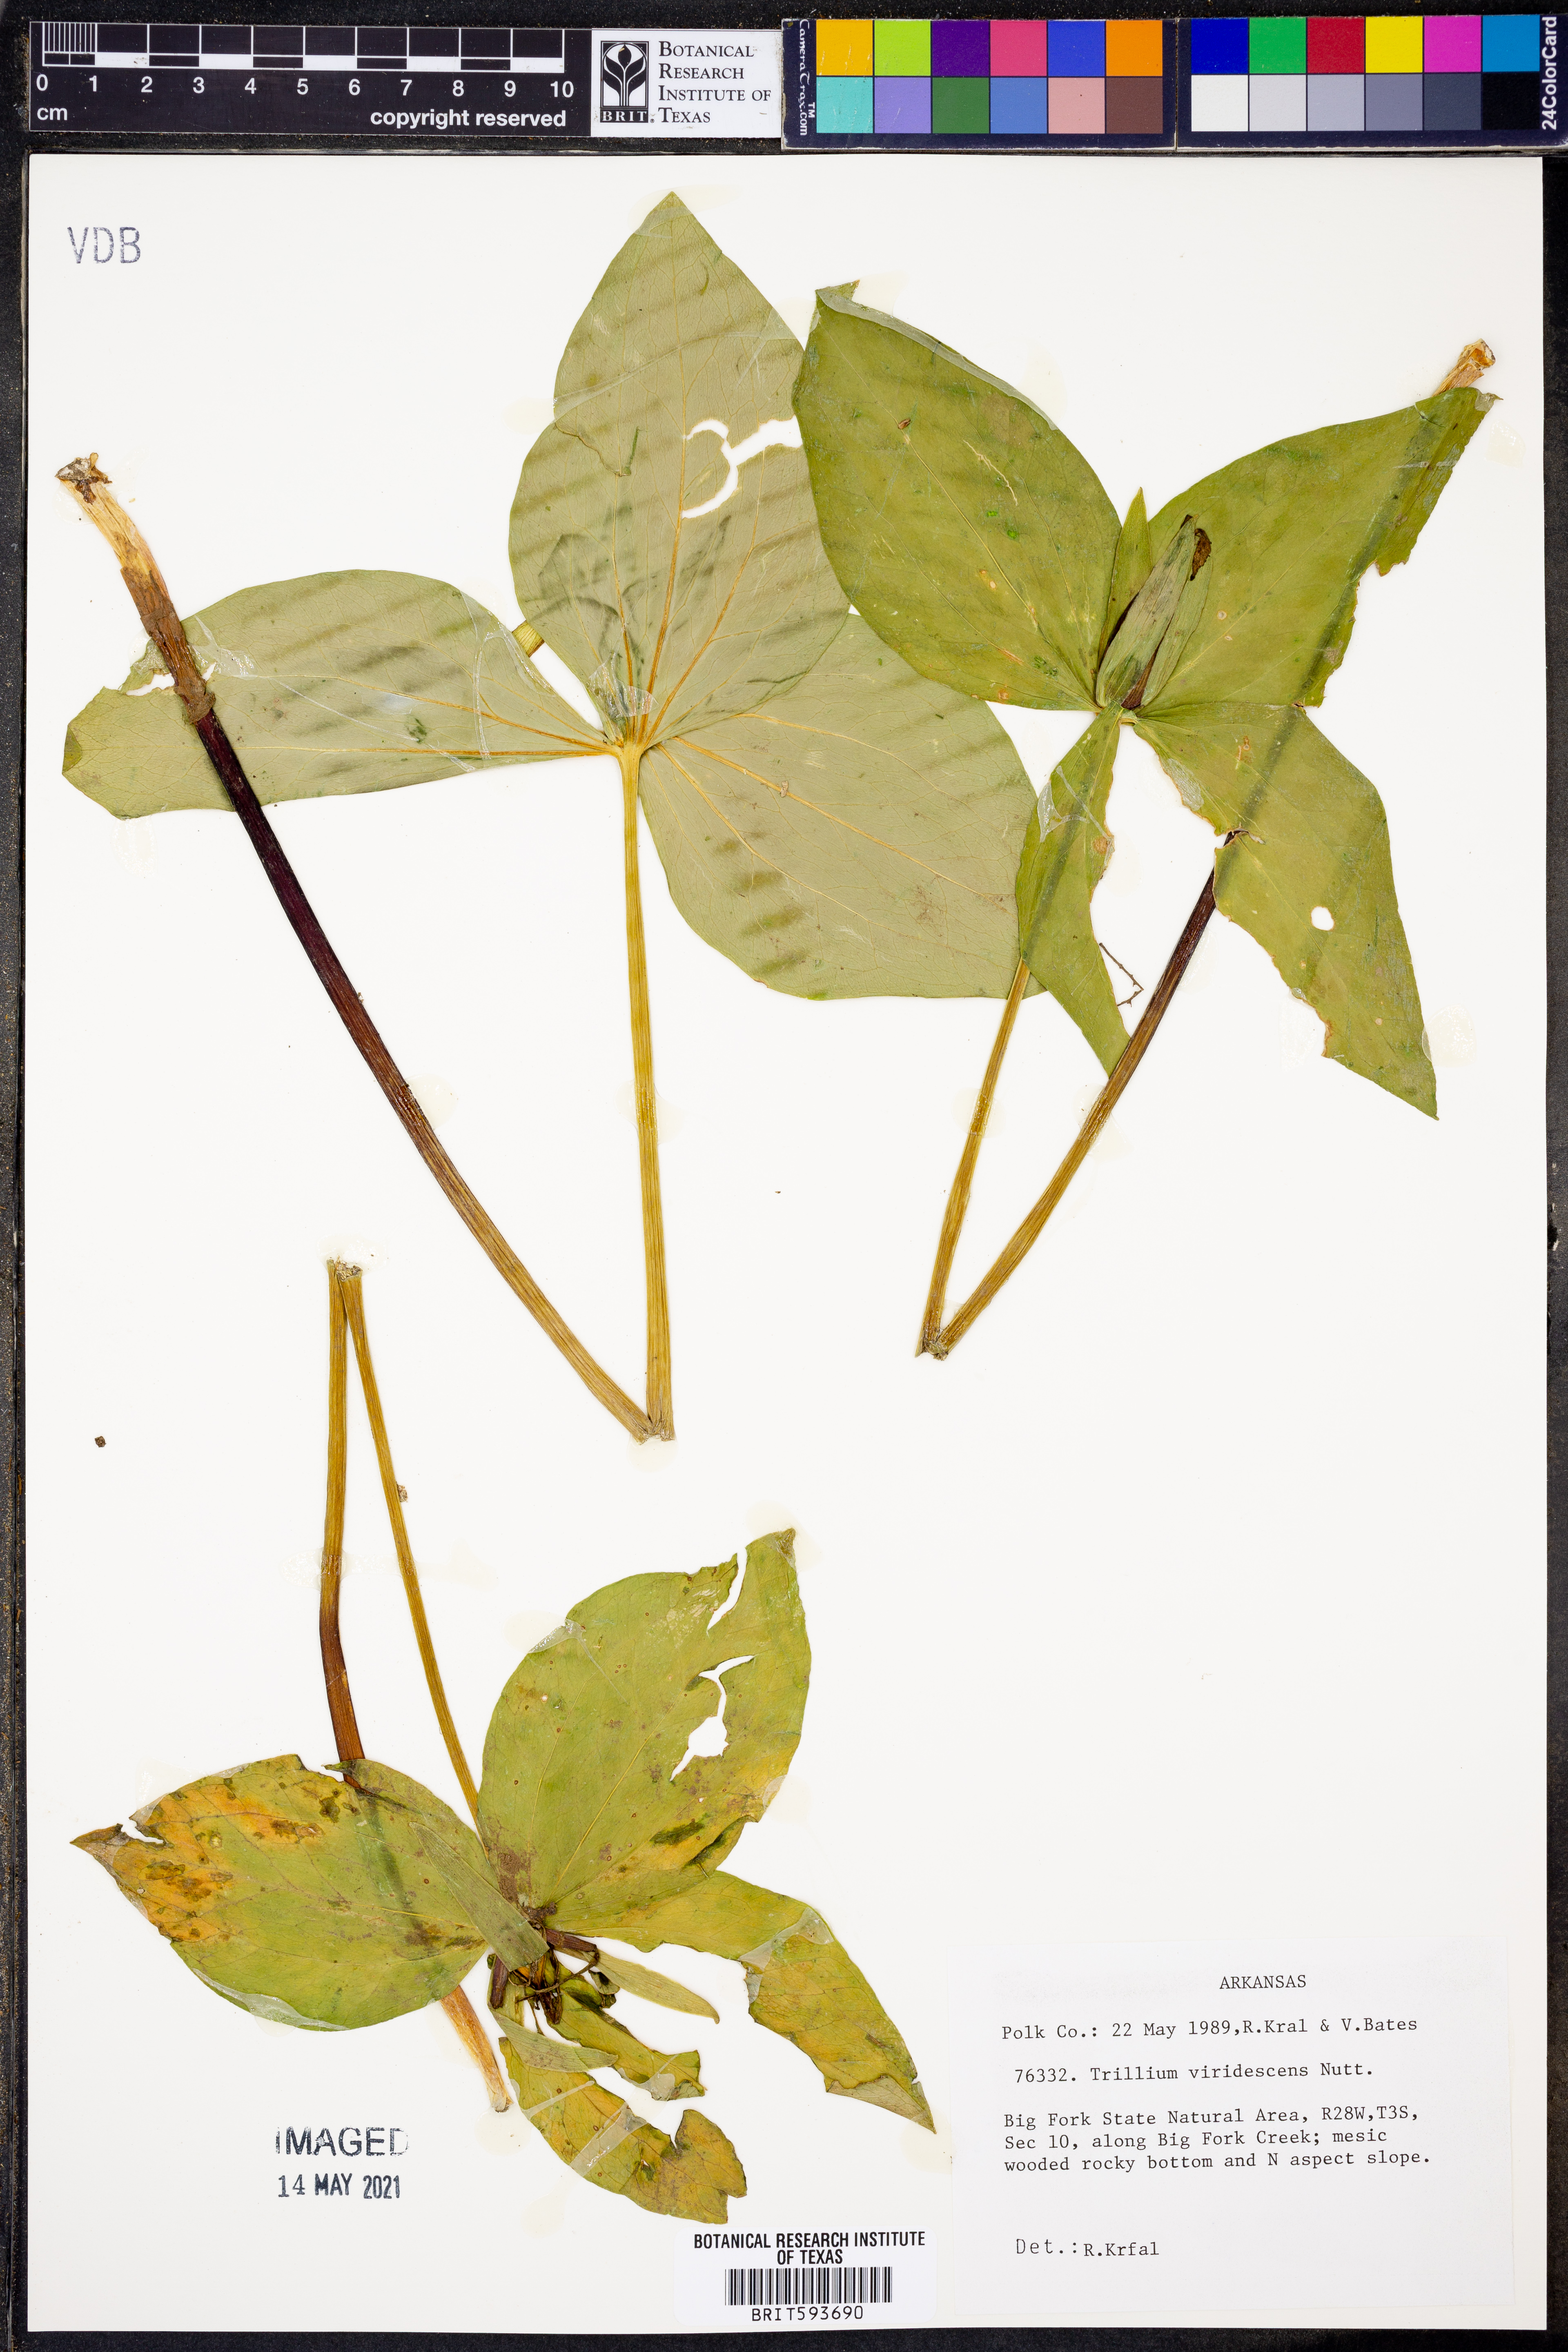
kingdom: Plantae
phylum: Tracheophyta
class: Liliopsida
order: Liliales
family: Melanthiaceae
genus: Trillium
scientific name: Trillium viridescens
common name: Ozark green trillium
